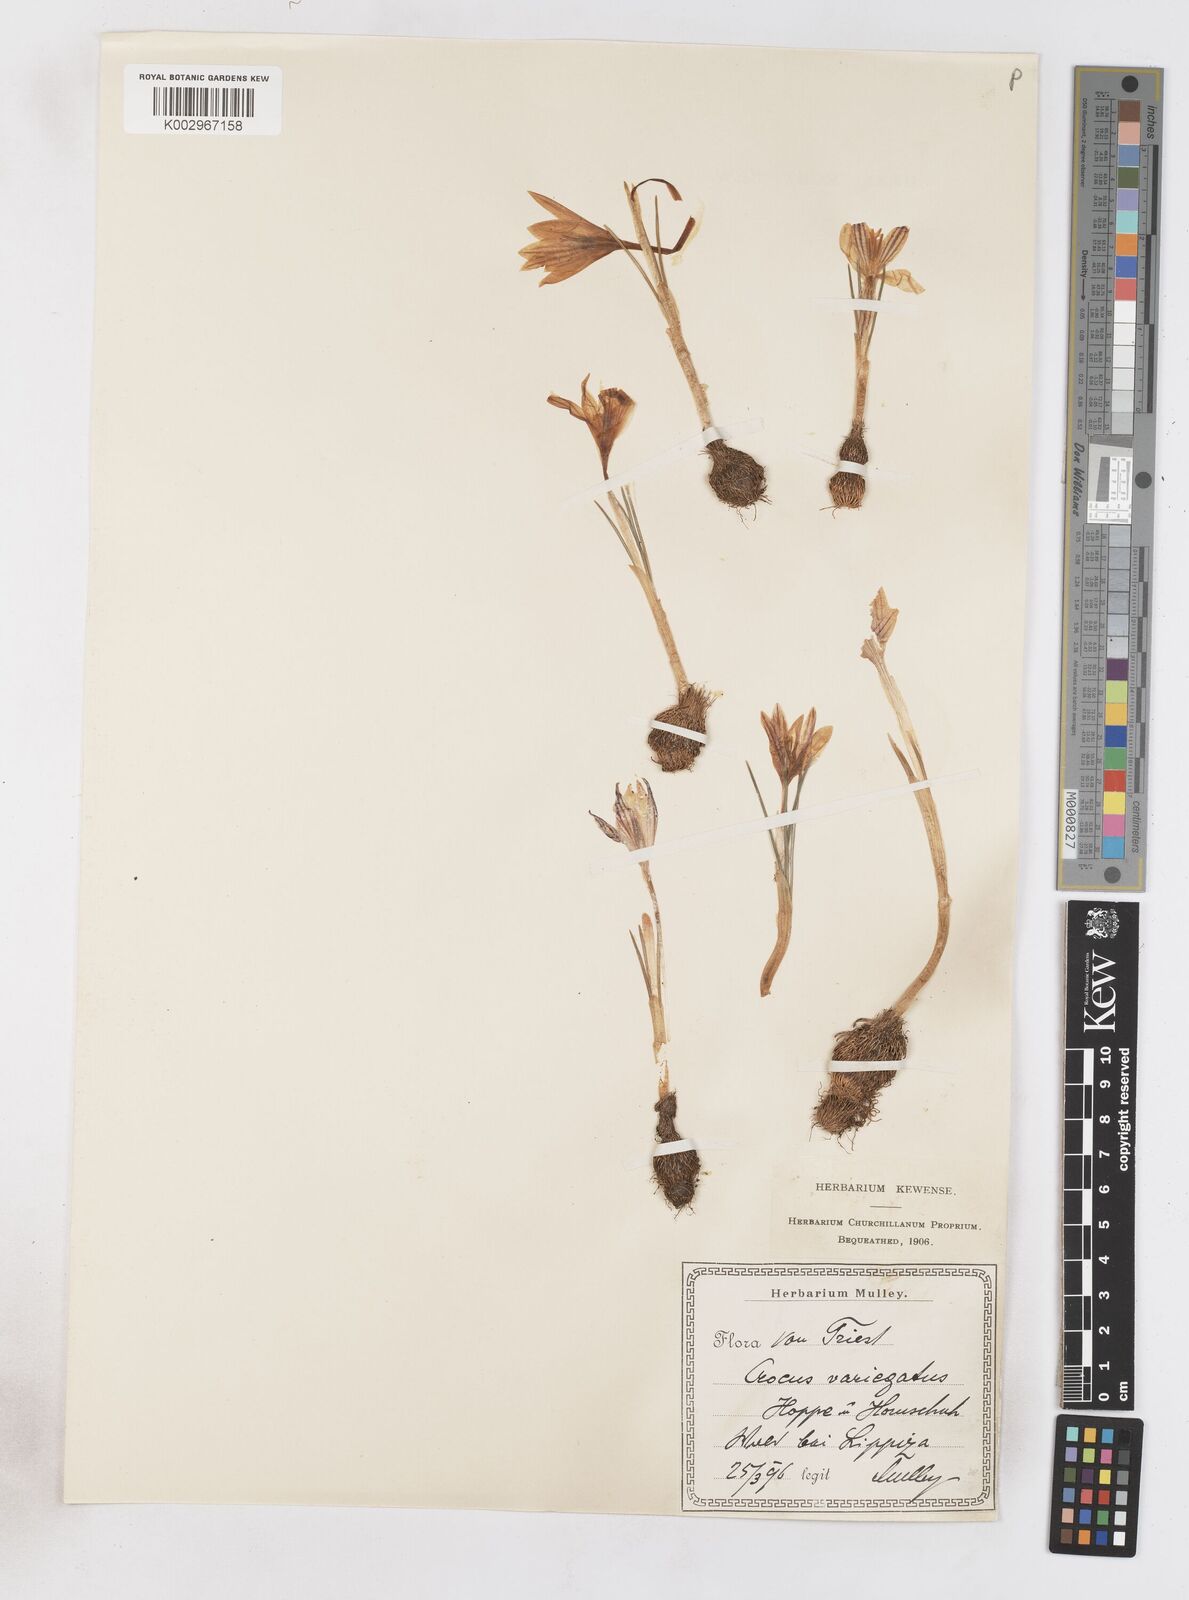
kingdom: Plantae
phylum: Tracheophyta
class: Liliopsida
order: Asparagales
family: Iridaceae
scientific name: Iridaceae
